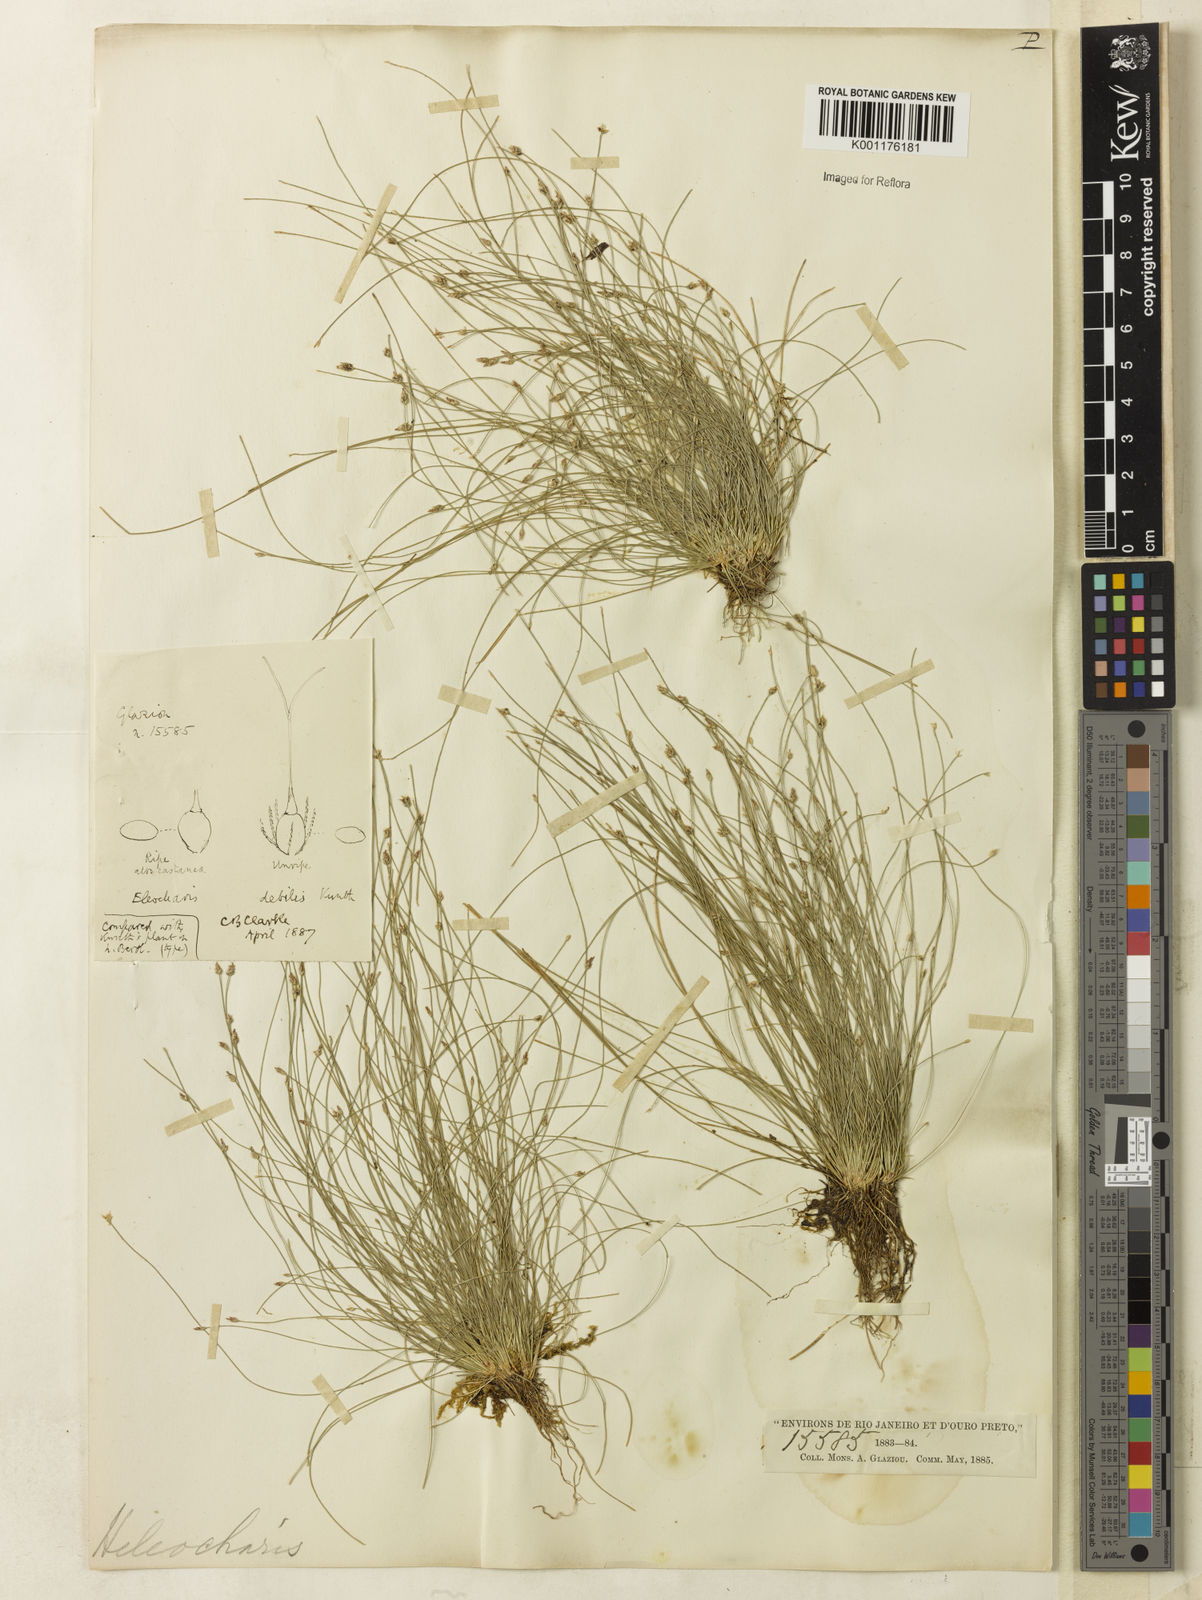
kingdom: Plantae
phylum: Tracheophyta
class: Liliopsida
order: Poales
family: Cyperaceae
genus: Eleocharis
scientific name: Eleocharis maculosa
